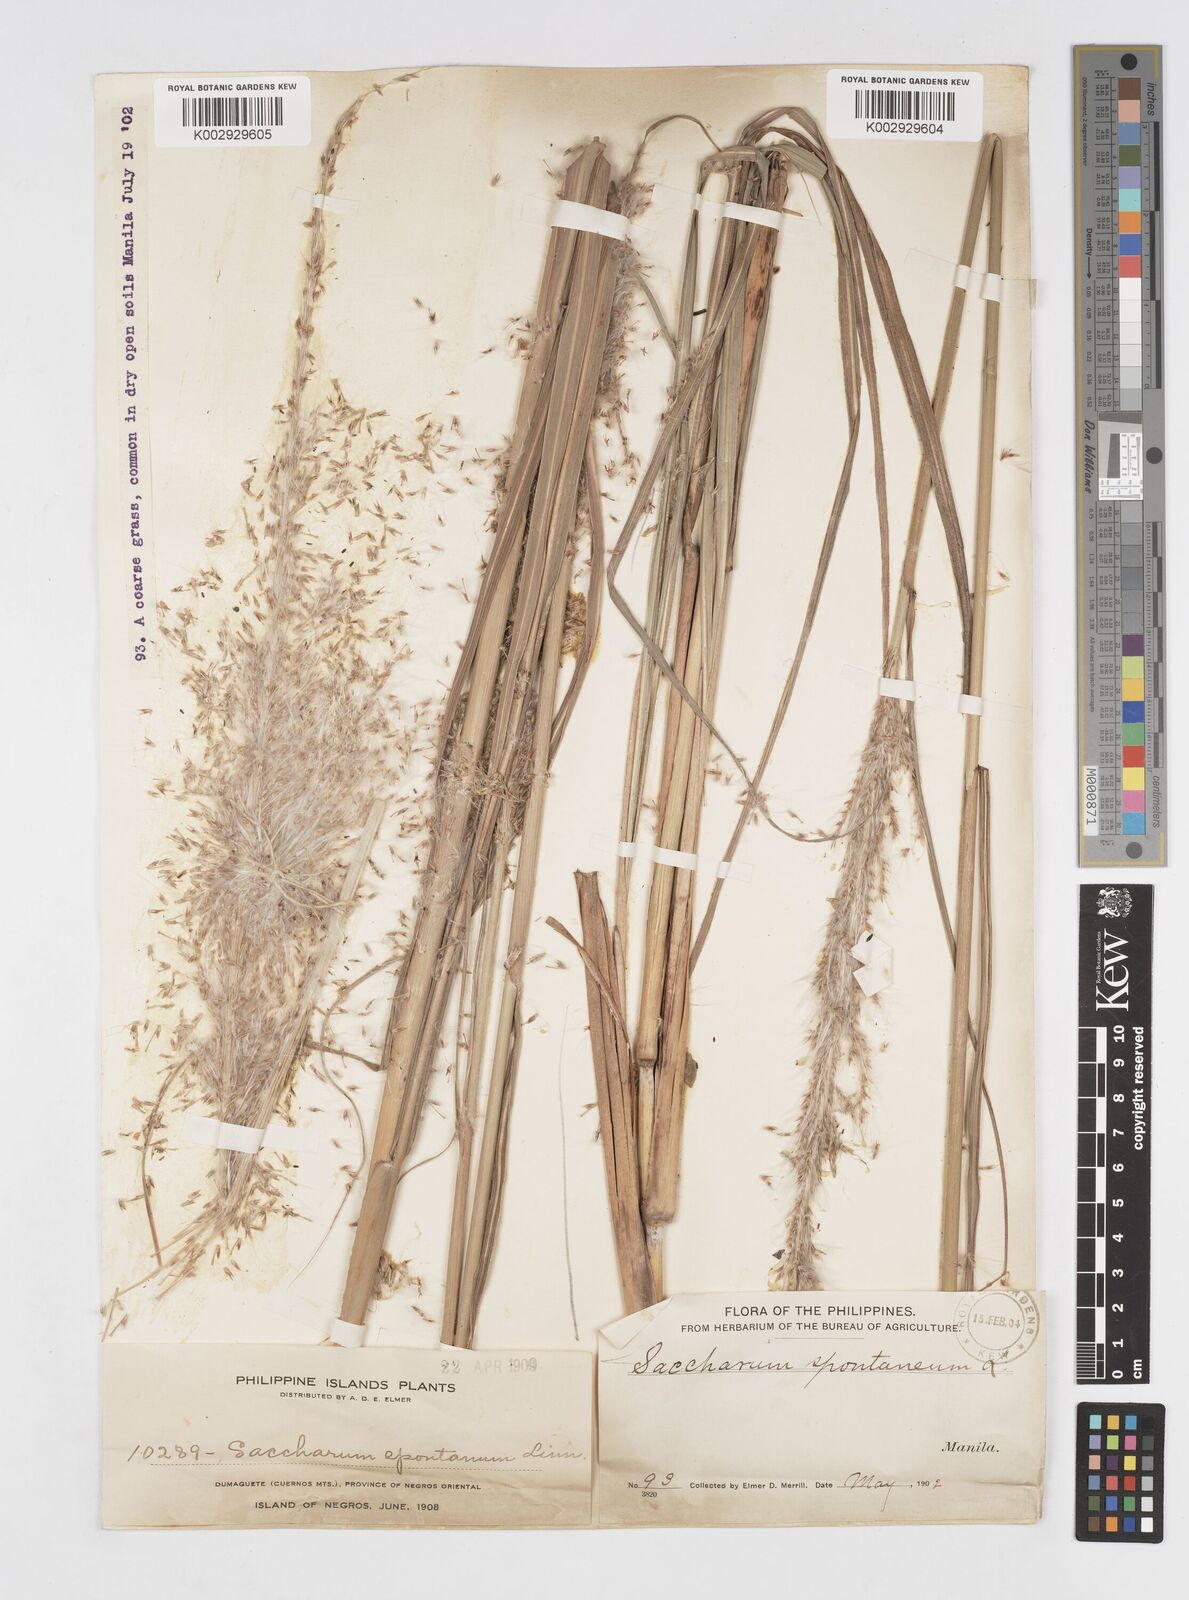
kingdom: Plantae
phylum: Tracheophyta
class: Liliopsida
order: Poales
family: Poaceae
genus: Saccharum
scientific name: Saccharum spontaneum
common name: Wild sugarcane
